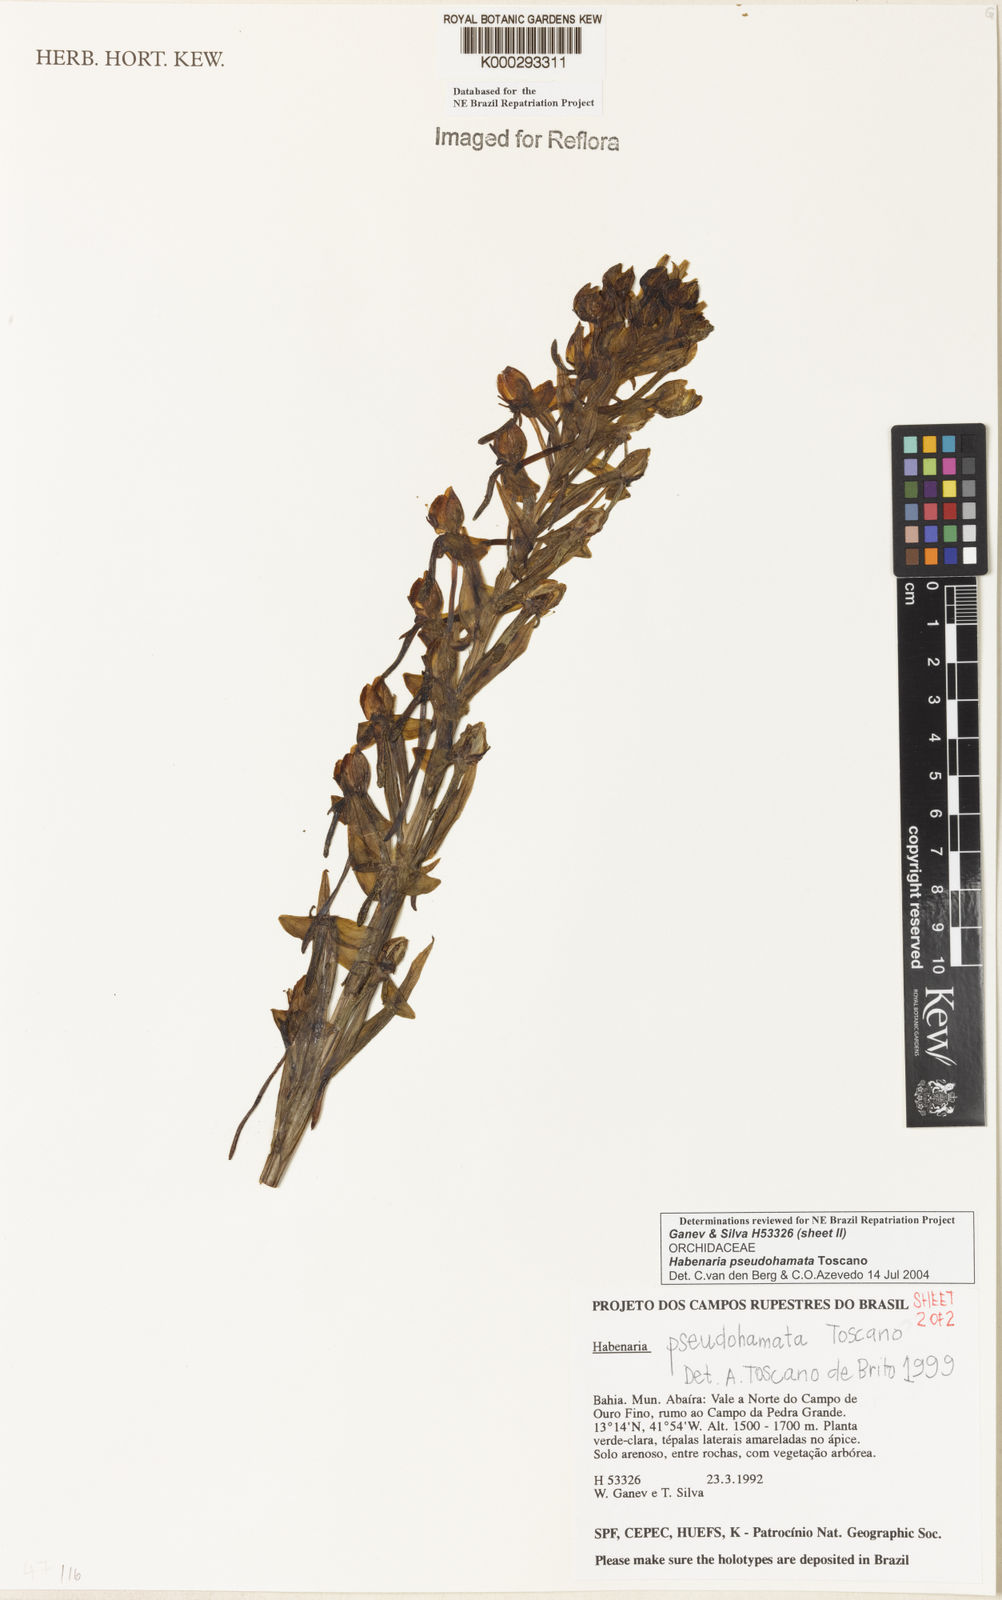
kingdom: Plantae
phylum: Tracheophyta
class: Liliopsida
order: Asparagales
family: Orchidaceae
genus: Habenaria
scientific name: Habenaria pseudohamata
